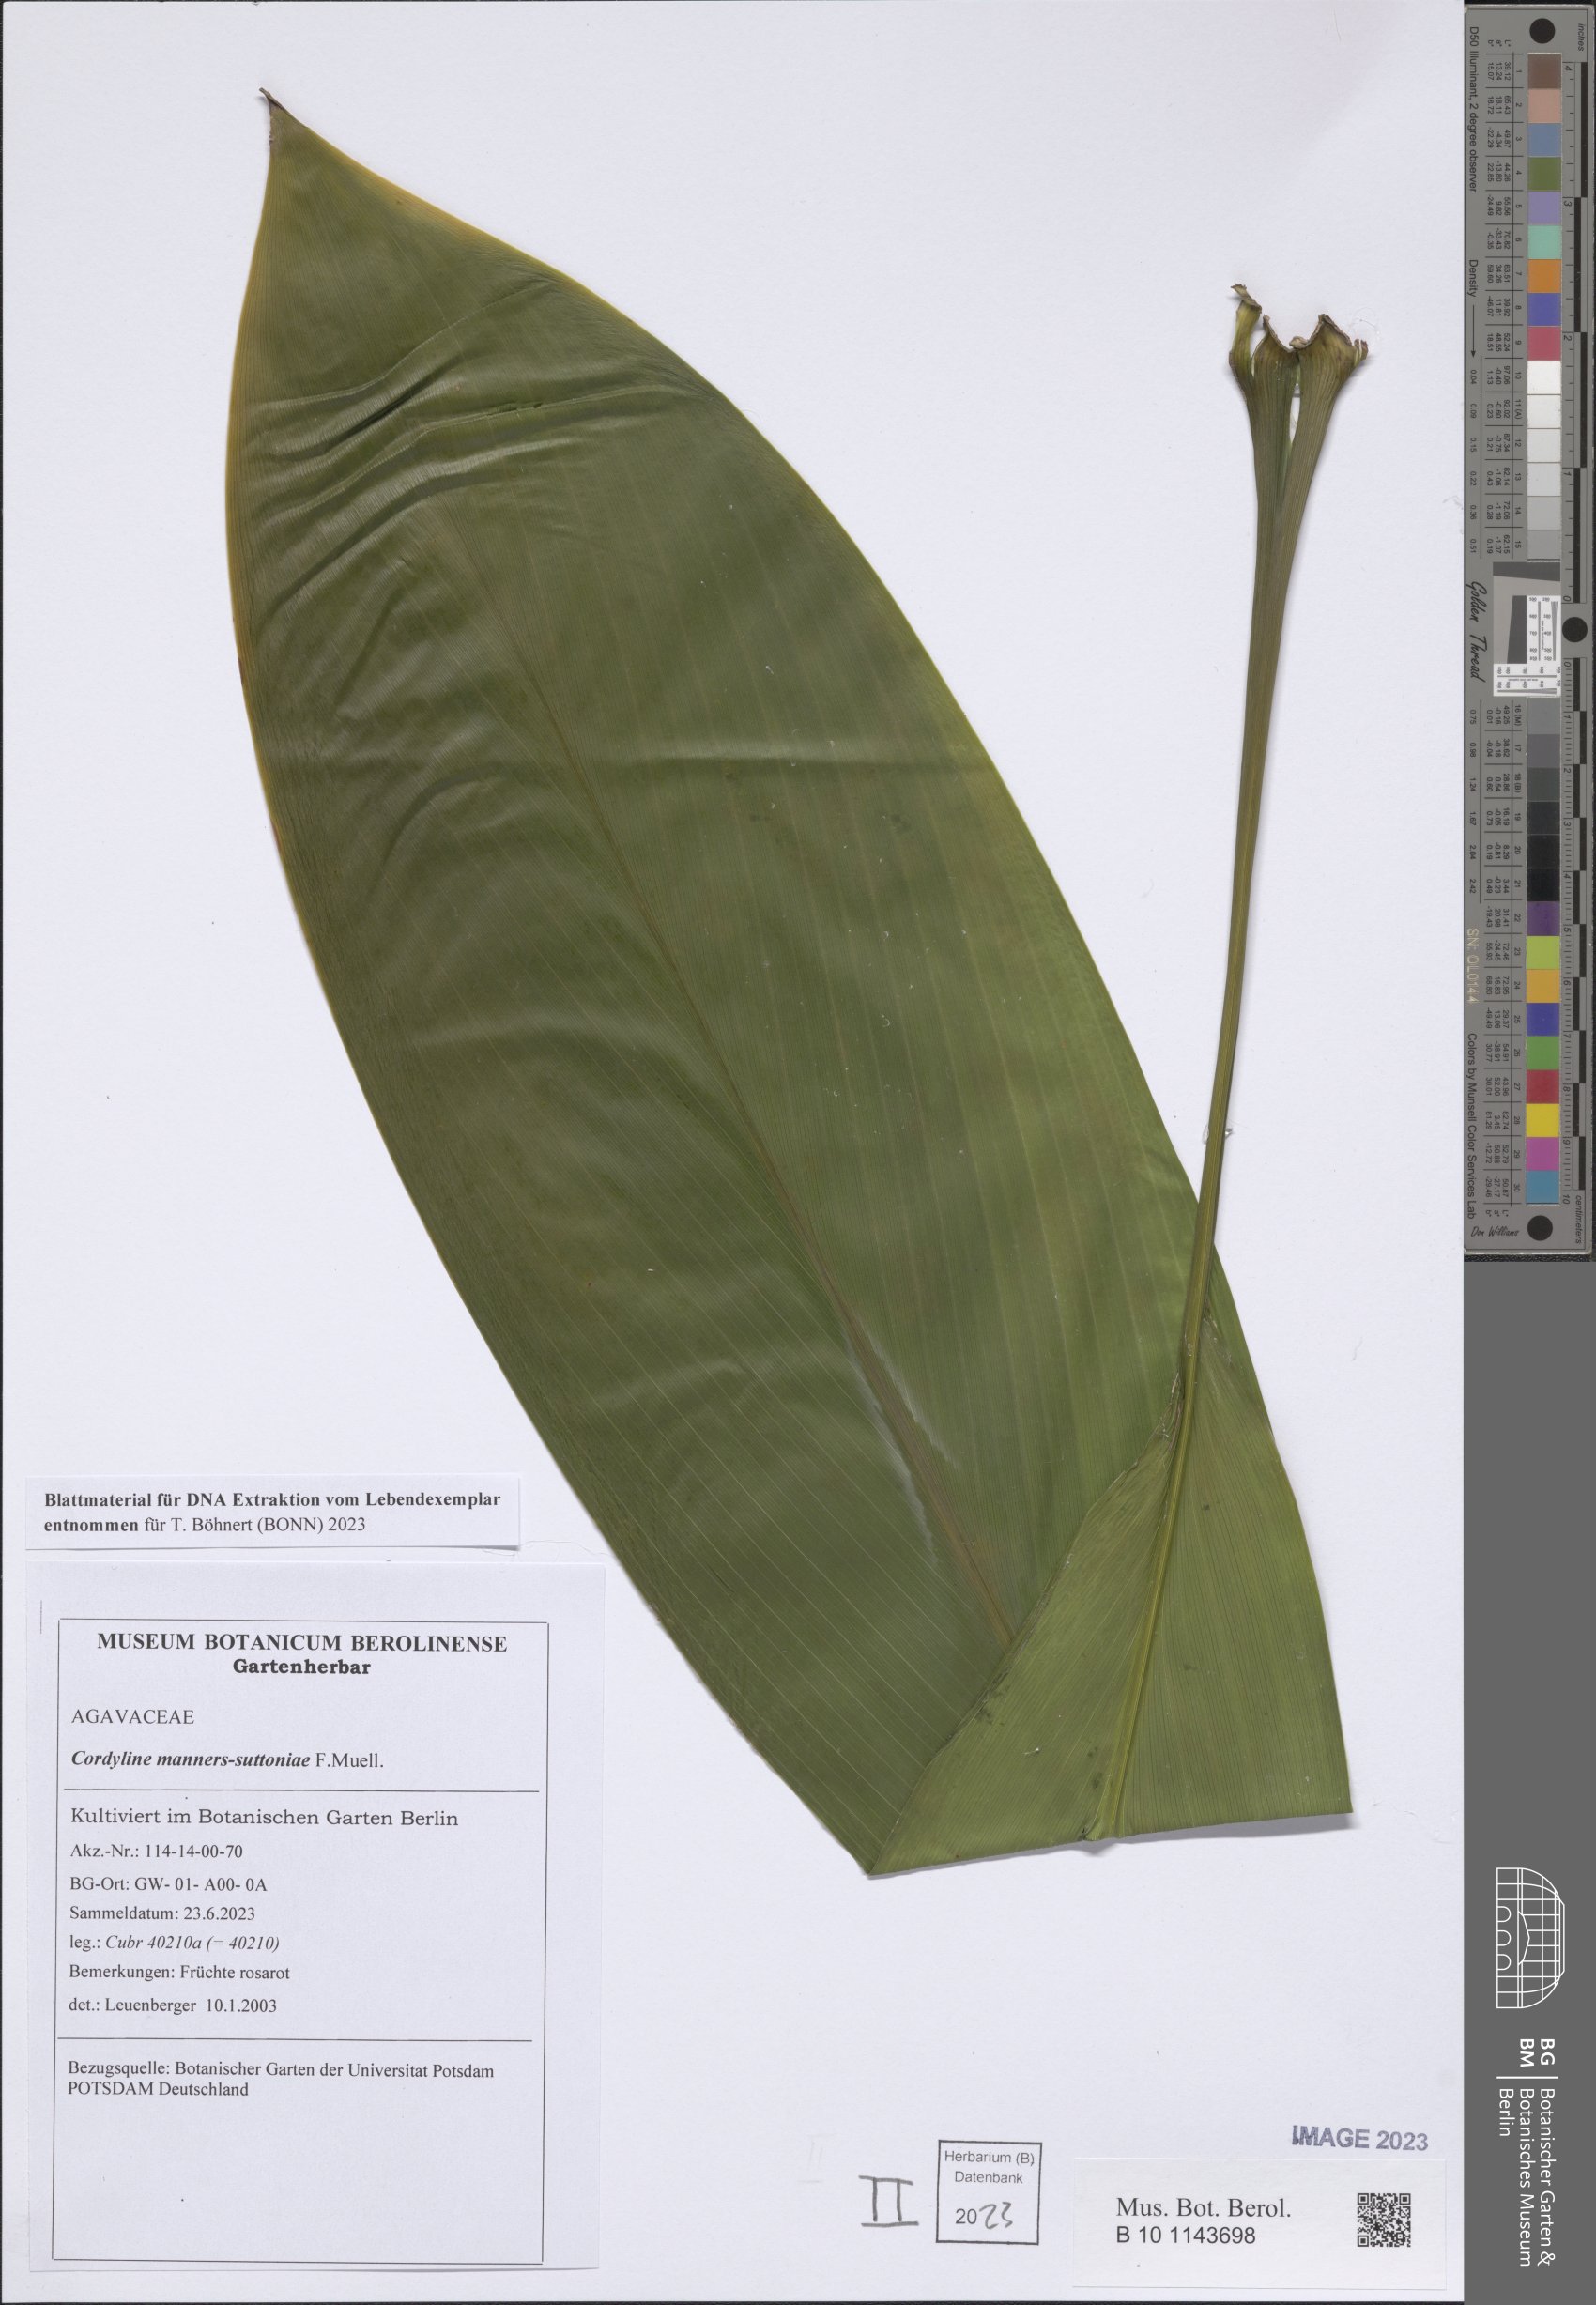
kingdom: Plantae
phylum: Tracheophyta
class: Liliopsida
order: Asparagales
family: Asparagaceae
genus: Cordyline
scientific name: Cordyline manners-suttoniae
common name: Giant palm-lily
